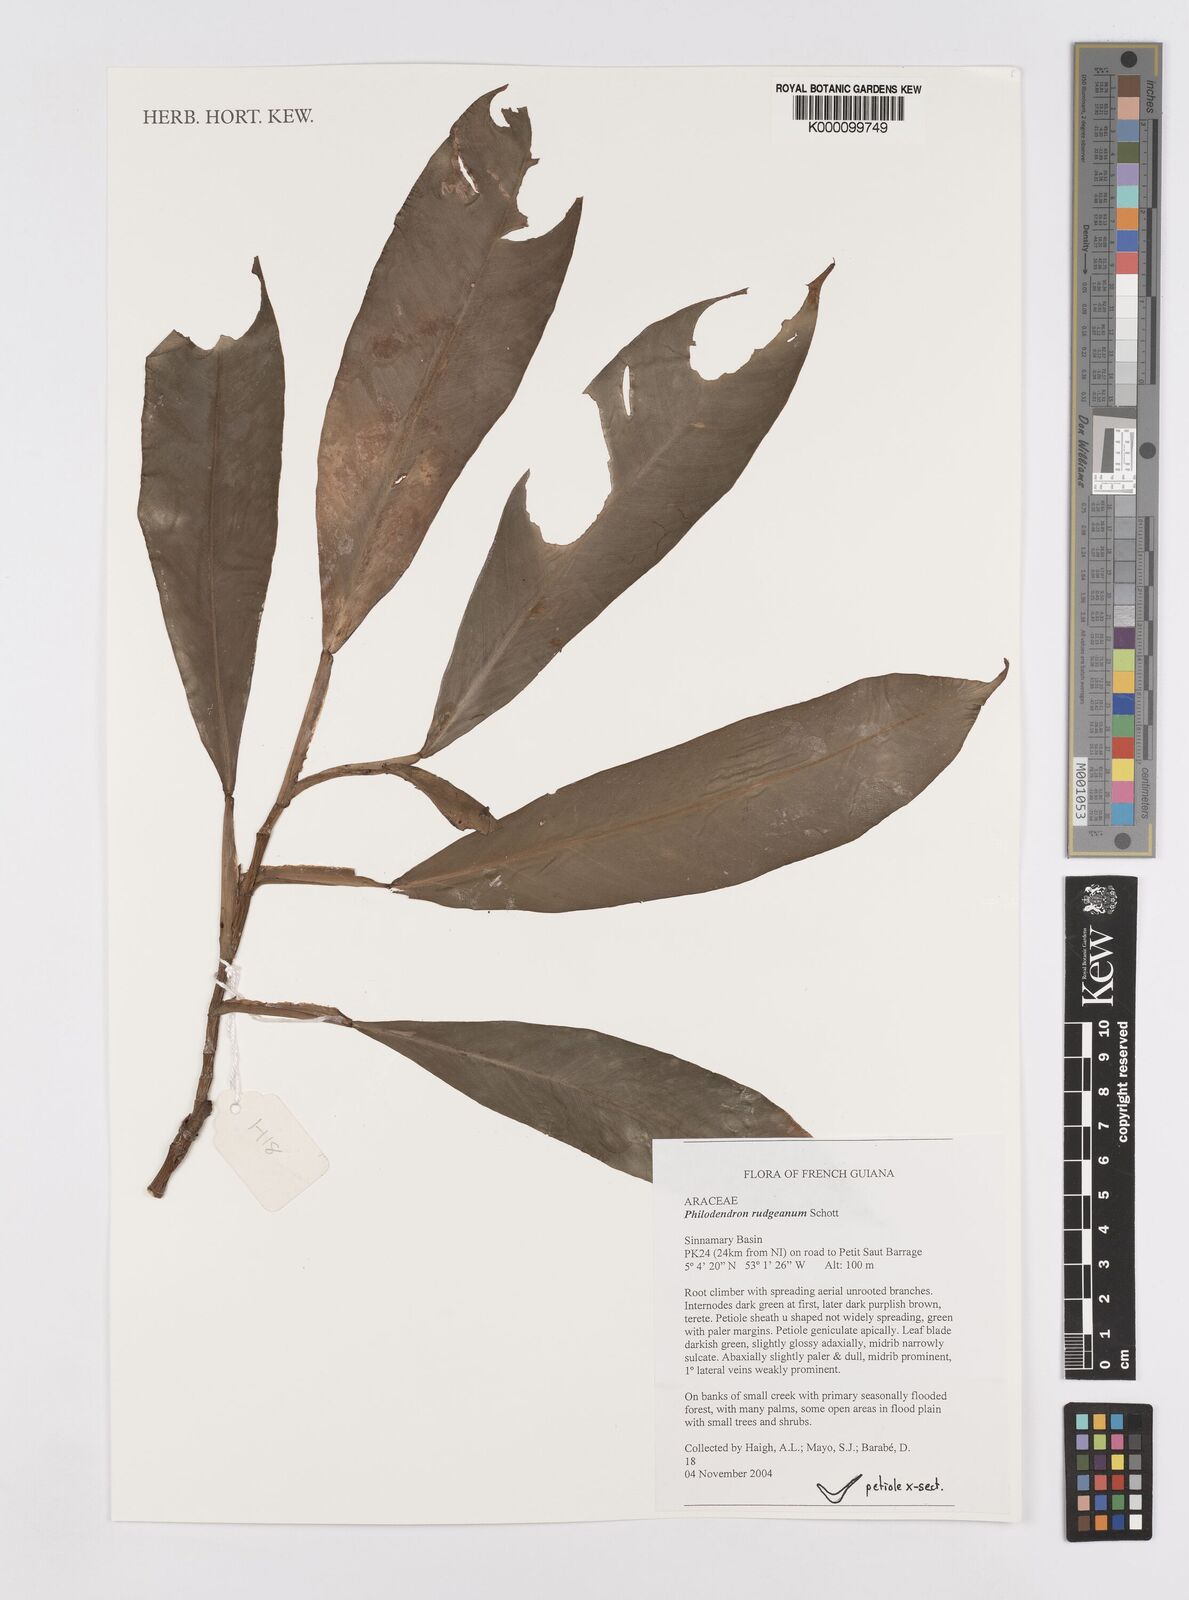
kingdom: Plantae
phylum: Tracheophyta
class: Liliopsida
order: Alismatales
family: Araceae
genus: Philodendron
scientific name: Philodendron rudgeanum
